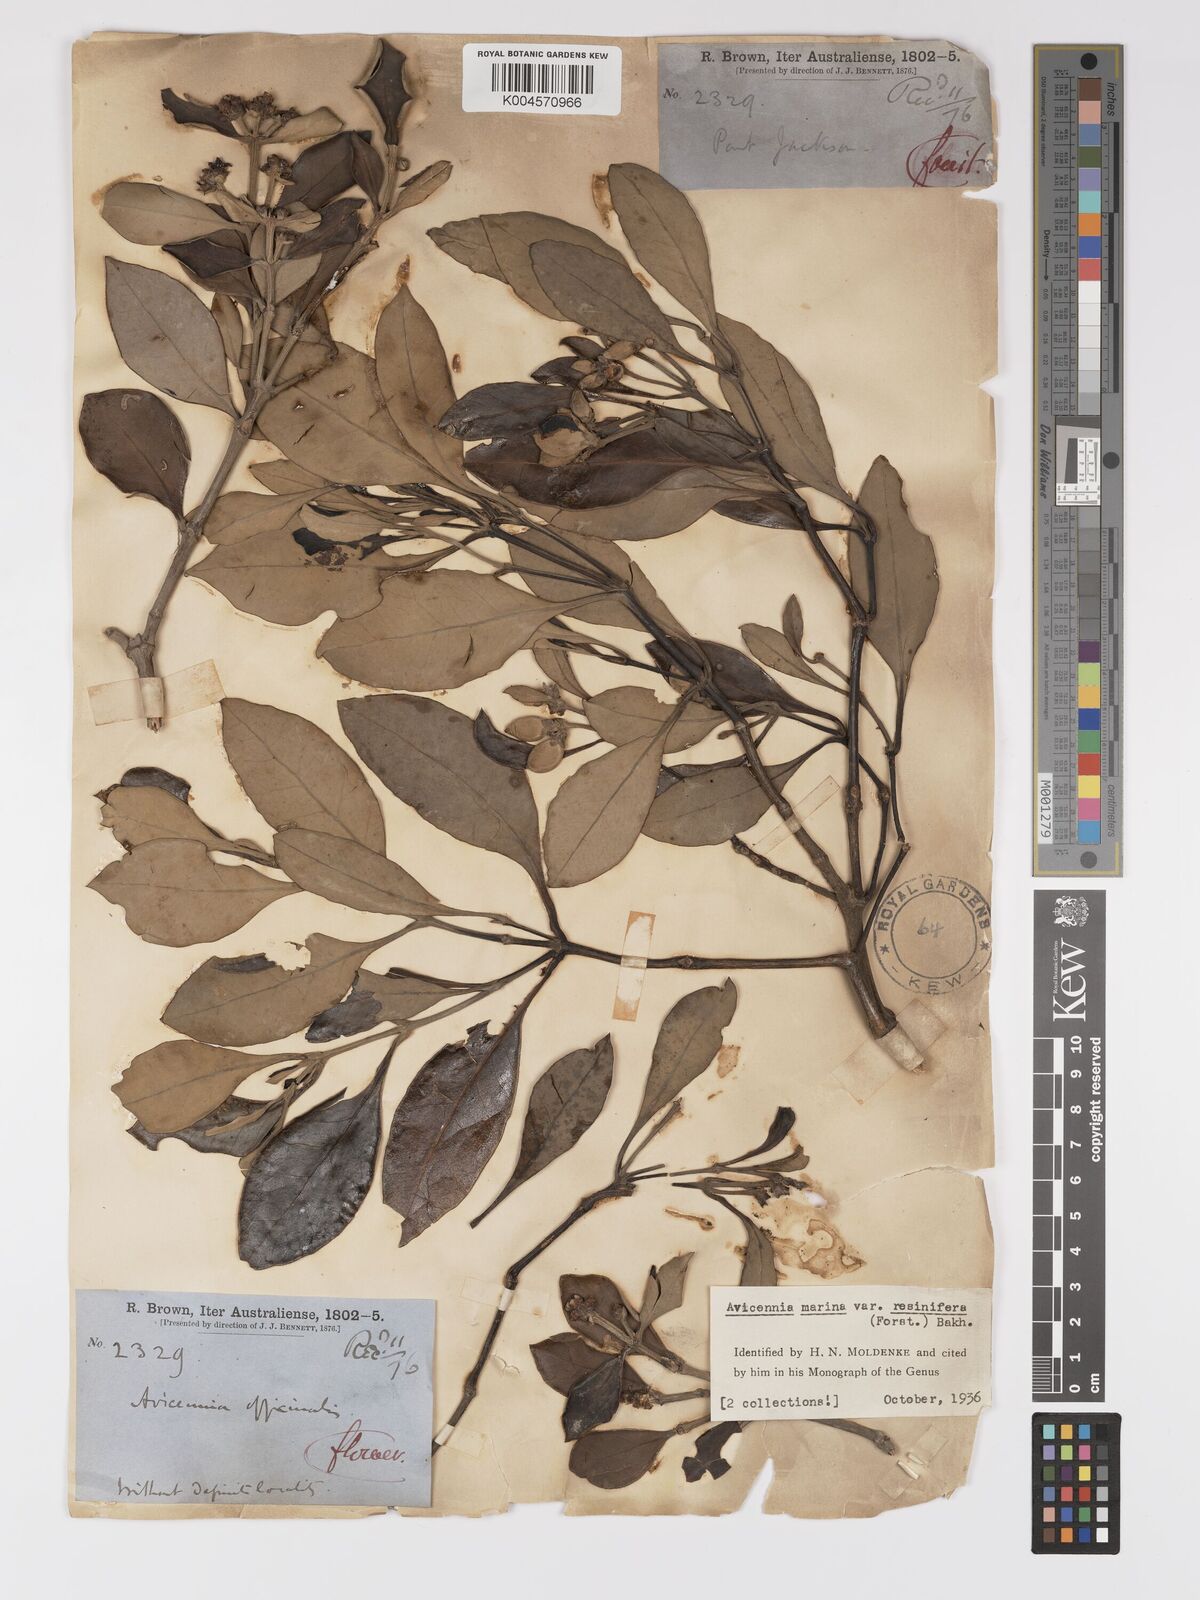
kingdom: Plantae
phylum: Tracheophyta
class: Magnoliopsida
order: Lamiales
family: Acanthaceae
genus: Avicennia
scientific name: Avicennia marina
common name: Gray mangrove
